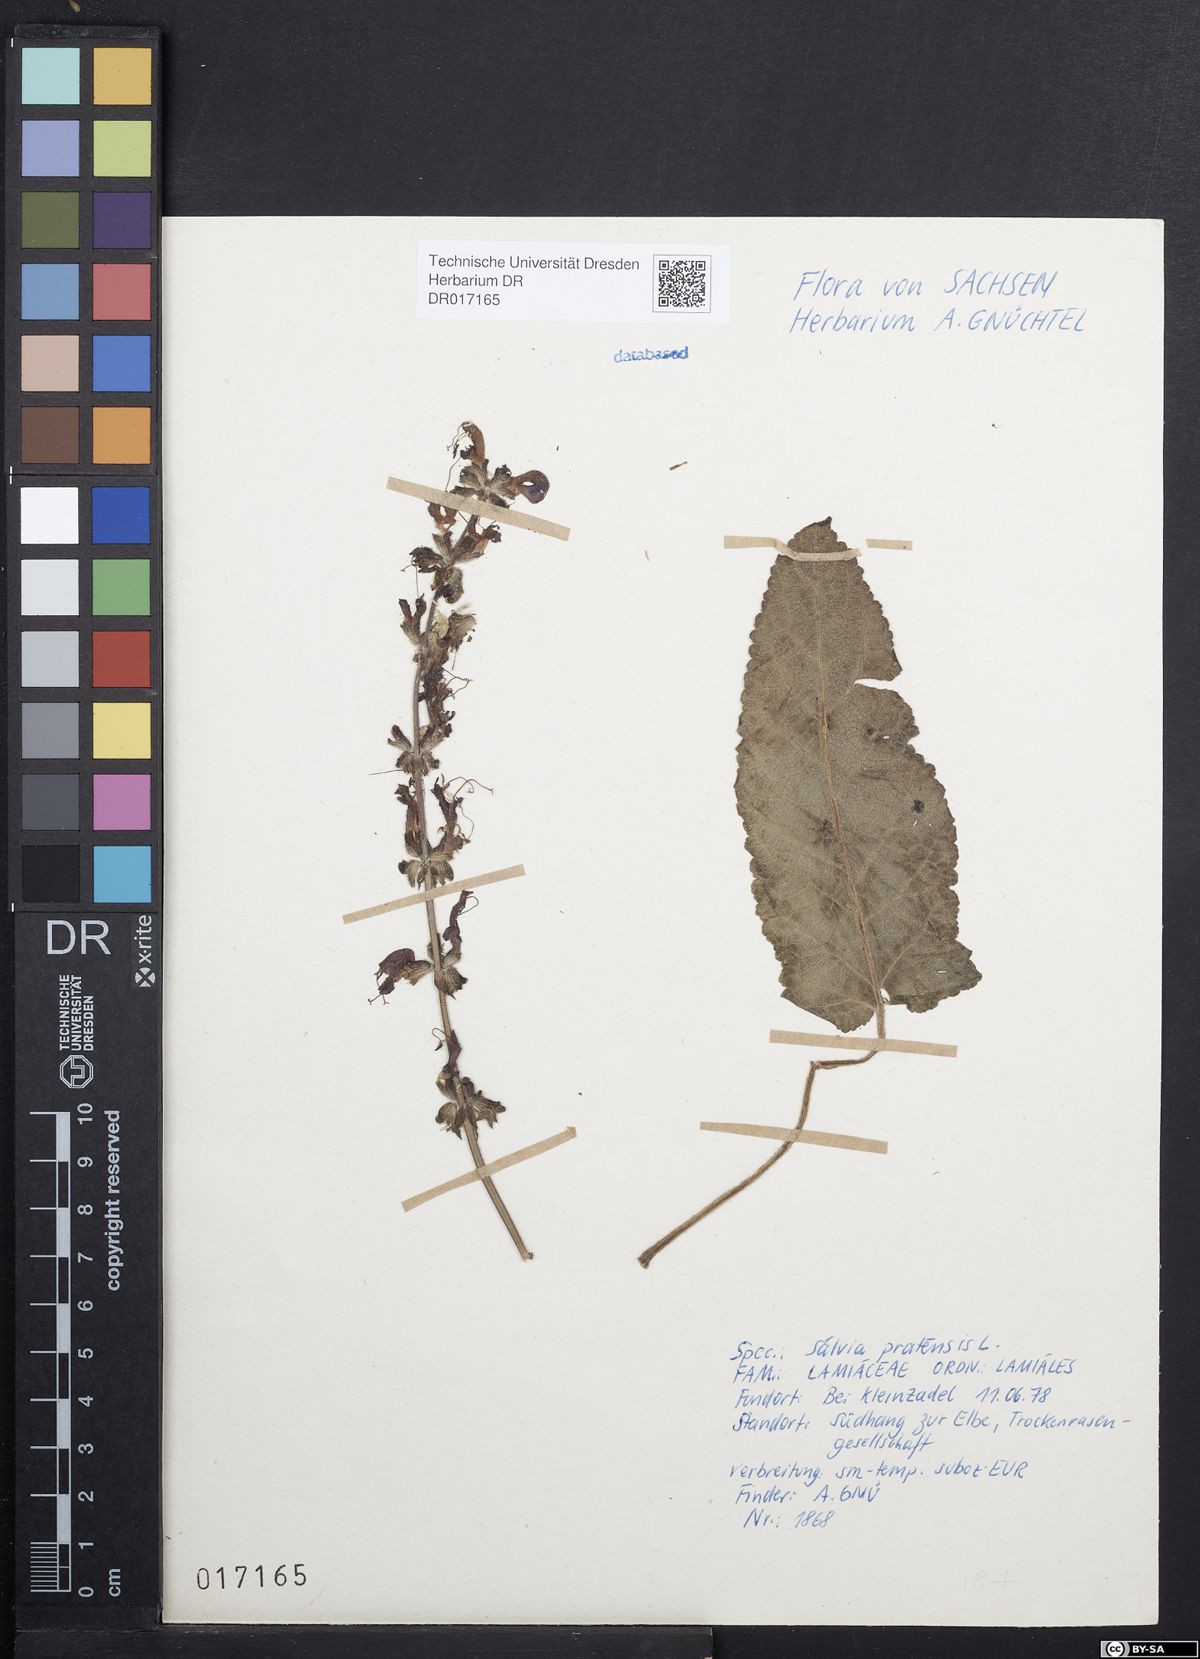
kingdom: Plantae
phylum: Tracheophyta
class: Magnoliopsida
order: Lamiales
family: Lamiaceae
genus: Salvia
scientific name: Salvia pratensis
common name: Meadow sage
